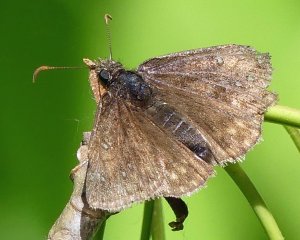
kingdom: Animalia
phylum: Arthropoda
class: Insecta
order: Lepidoptera
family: Hesperiidae
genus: Gesta
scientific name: Gesta
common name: Juvenal's Duskywing
